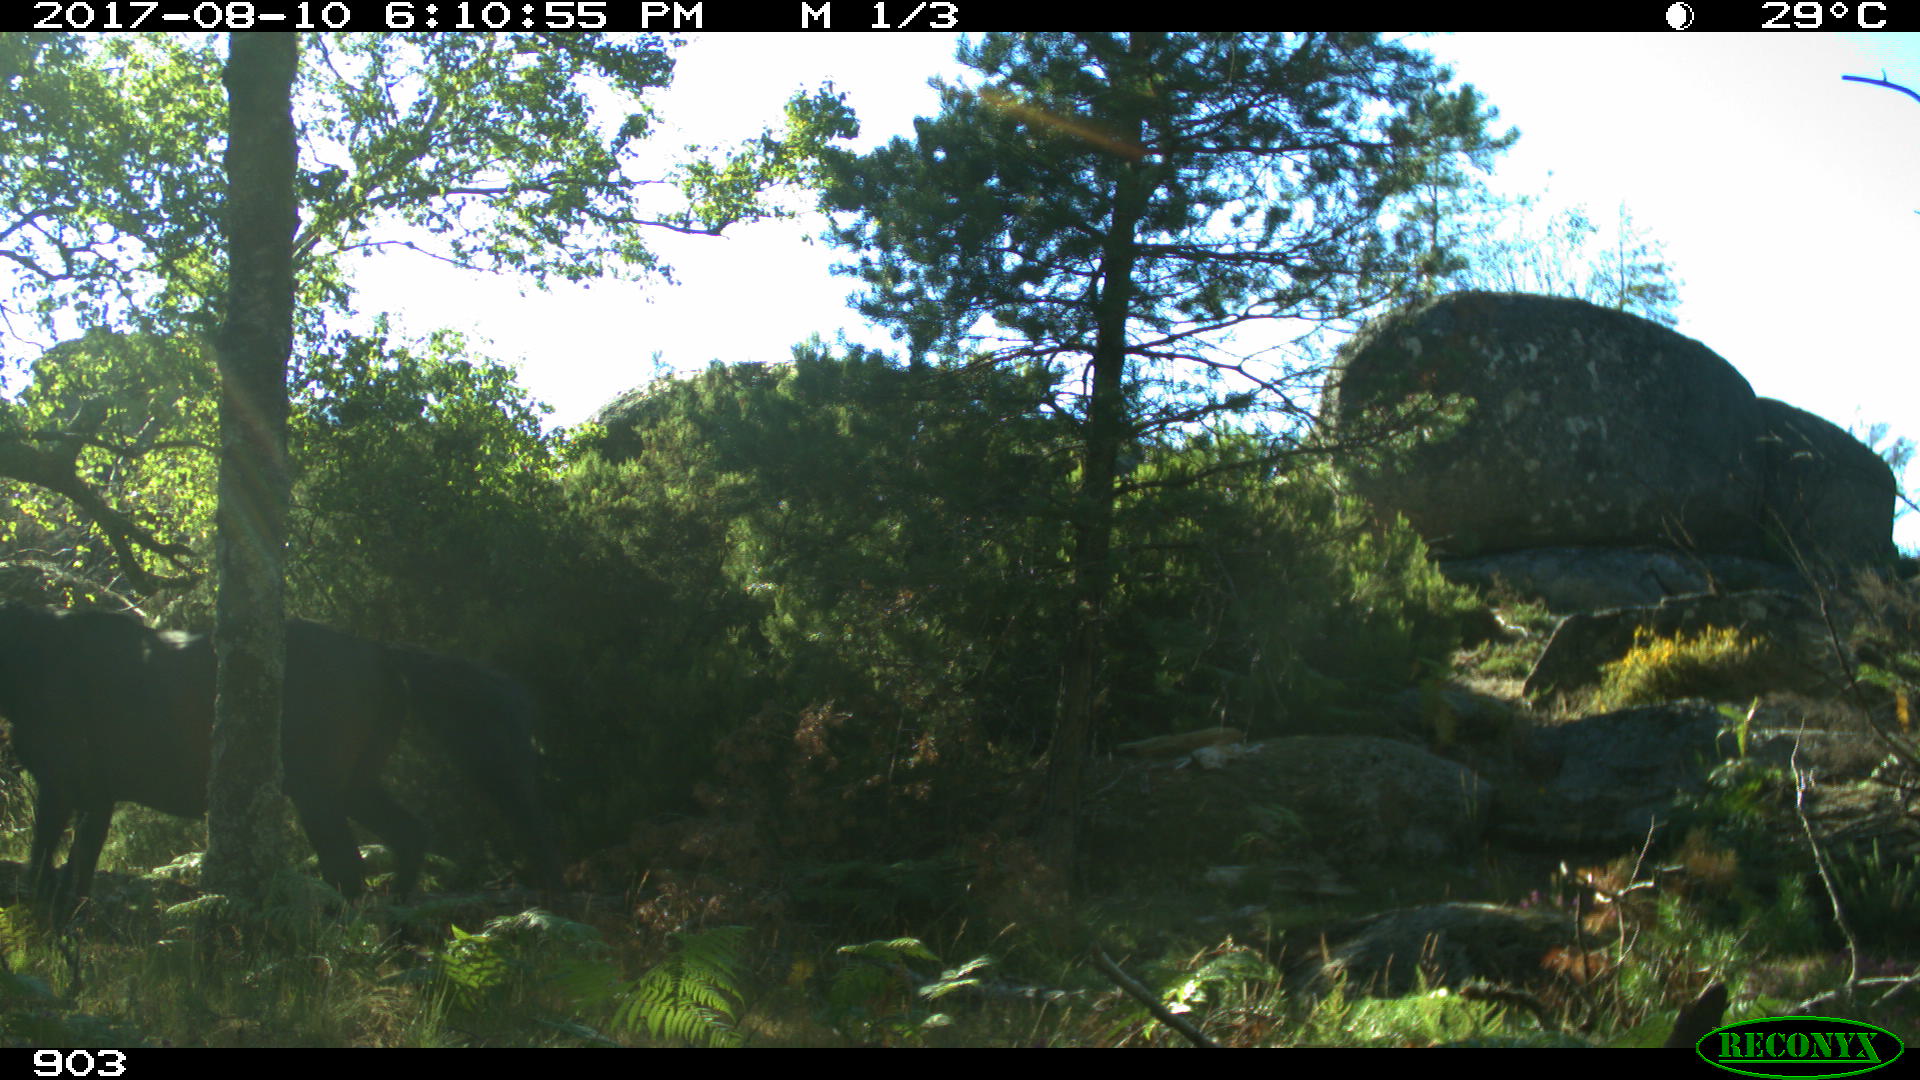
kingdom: Animalia
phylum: Chordata
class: Mammalia
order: Perissodactyla
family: Equidae
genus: Equus
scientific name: Equus caballus
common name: Horse
